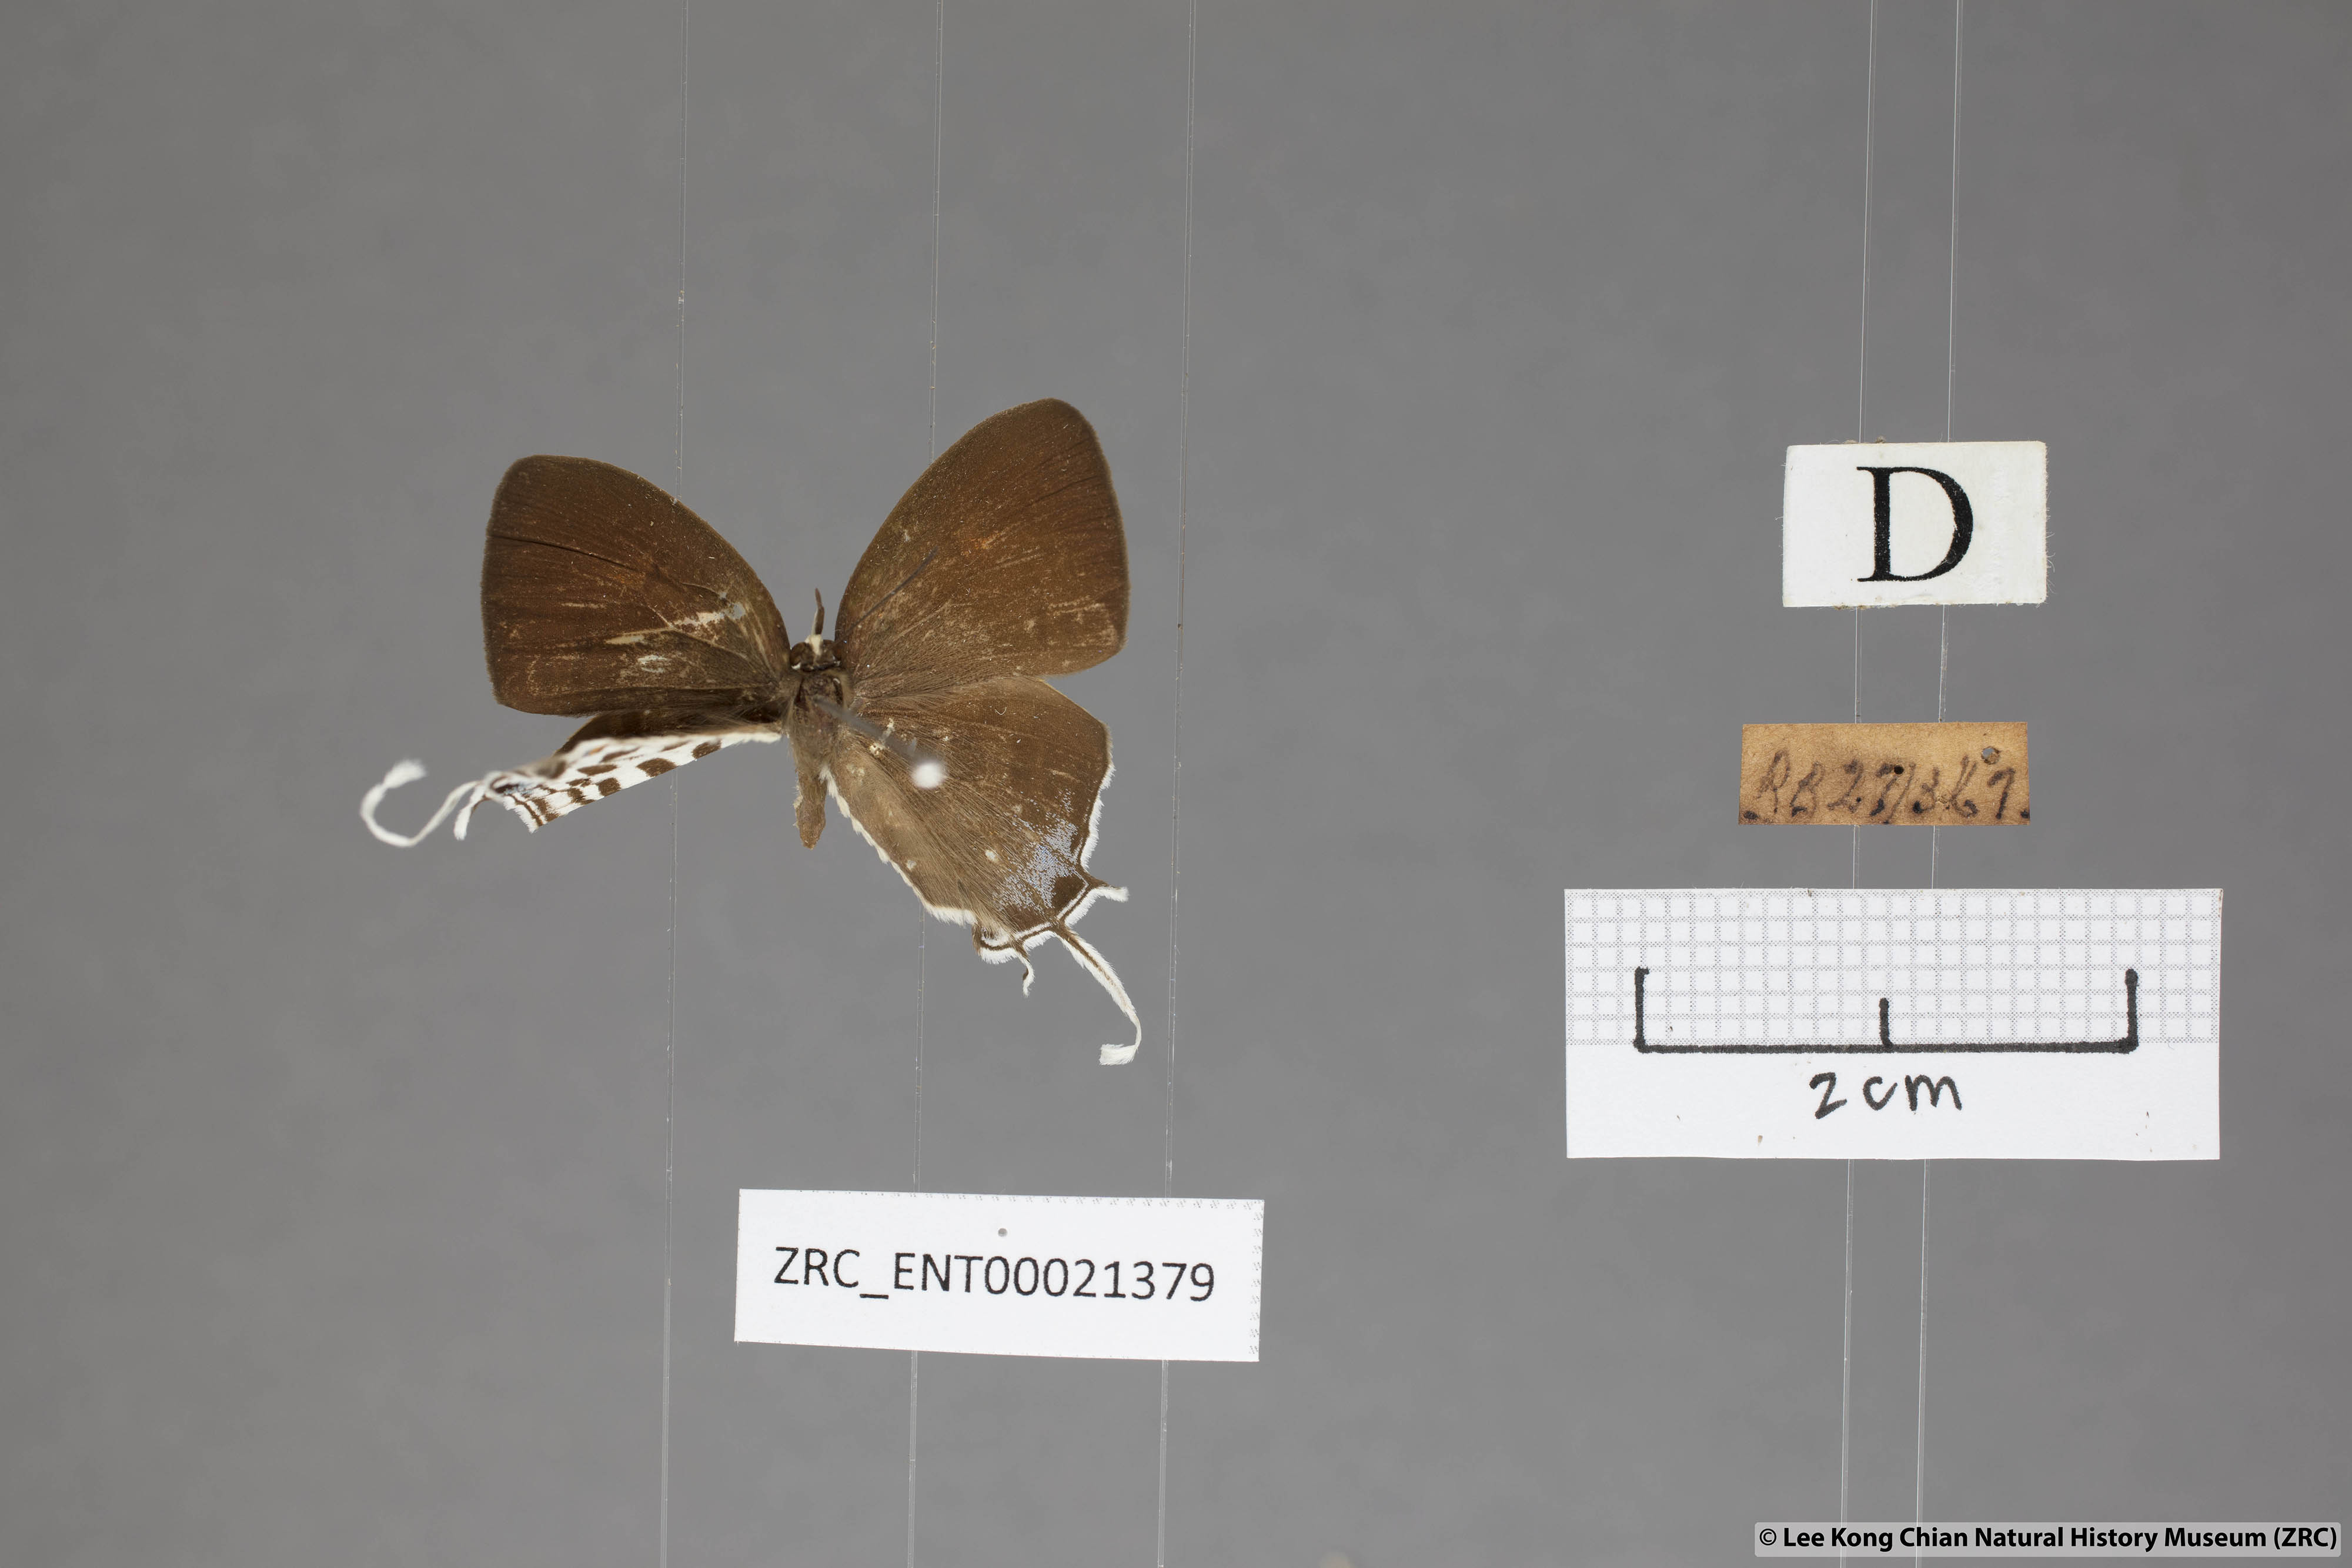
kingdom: Animalia
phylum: Arthropoda
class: Insecta
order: Lepidoptera
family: Lycaenidae
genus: Drupadia
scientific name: Drupadia ravindra
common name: Common posy
